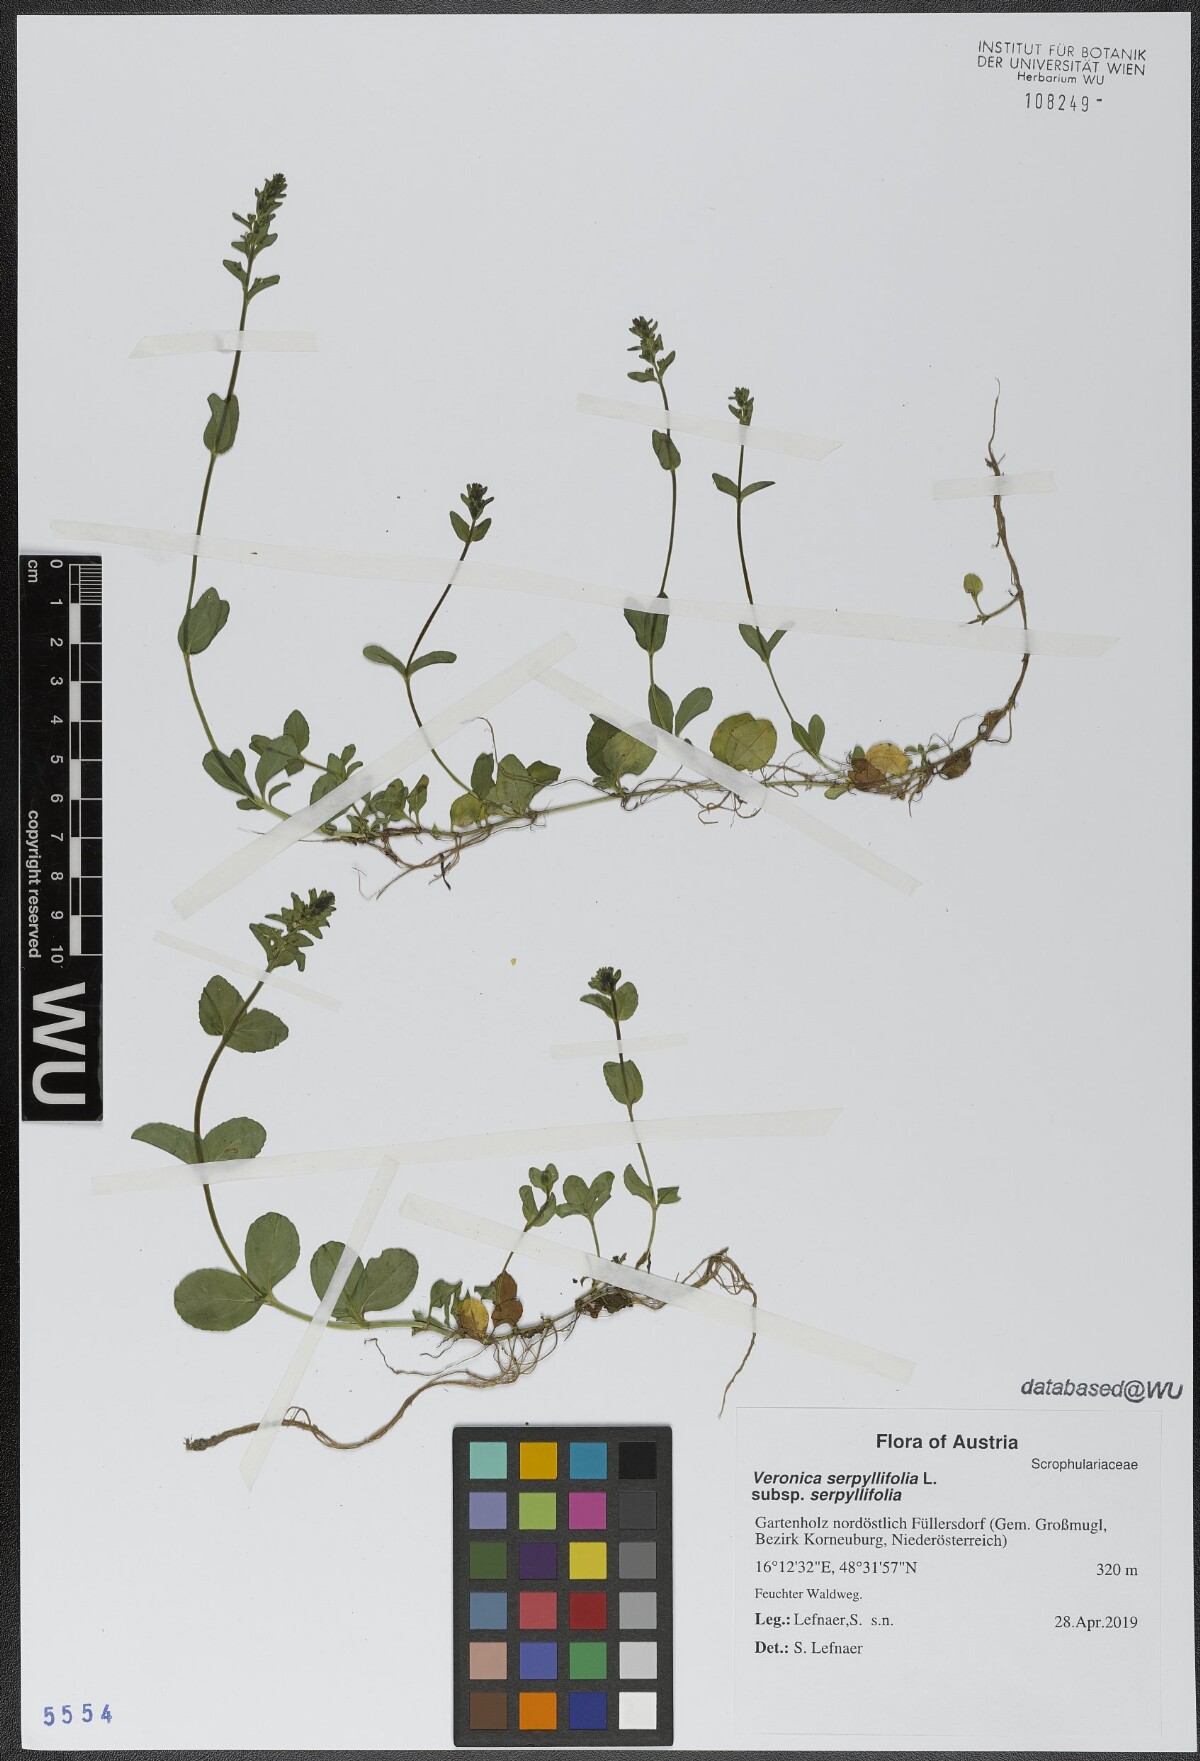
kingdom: Plantae
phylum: Tracheophyta
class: Magnoliopsida
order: Lamiales
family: Plantaginaceae
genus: Veronica
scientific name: Veronica serpyllifolia
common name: Thyme-leaved speedwell
